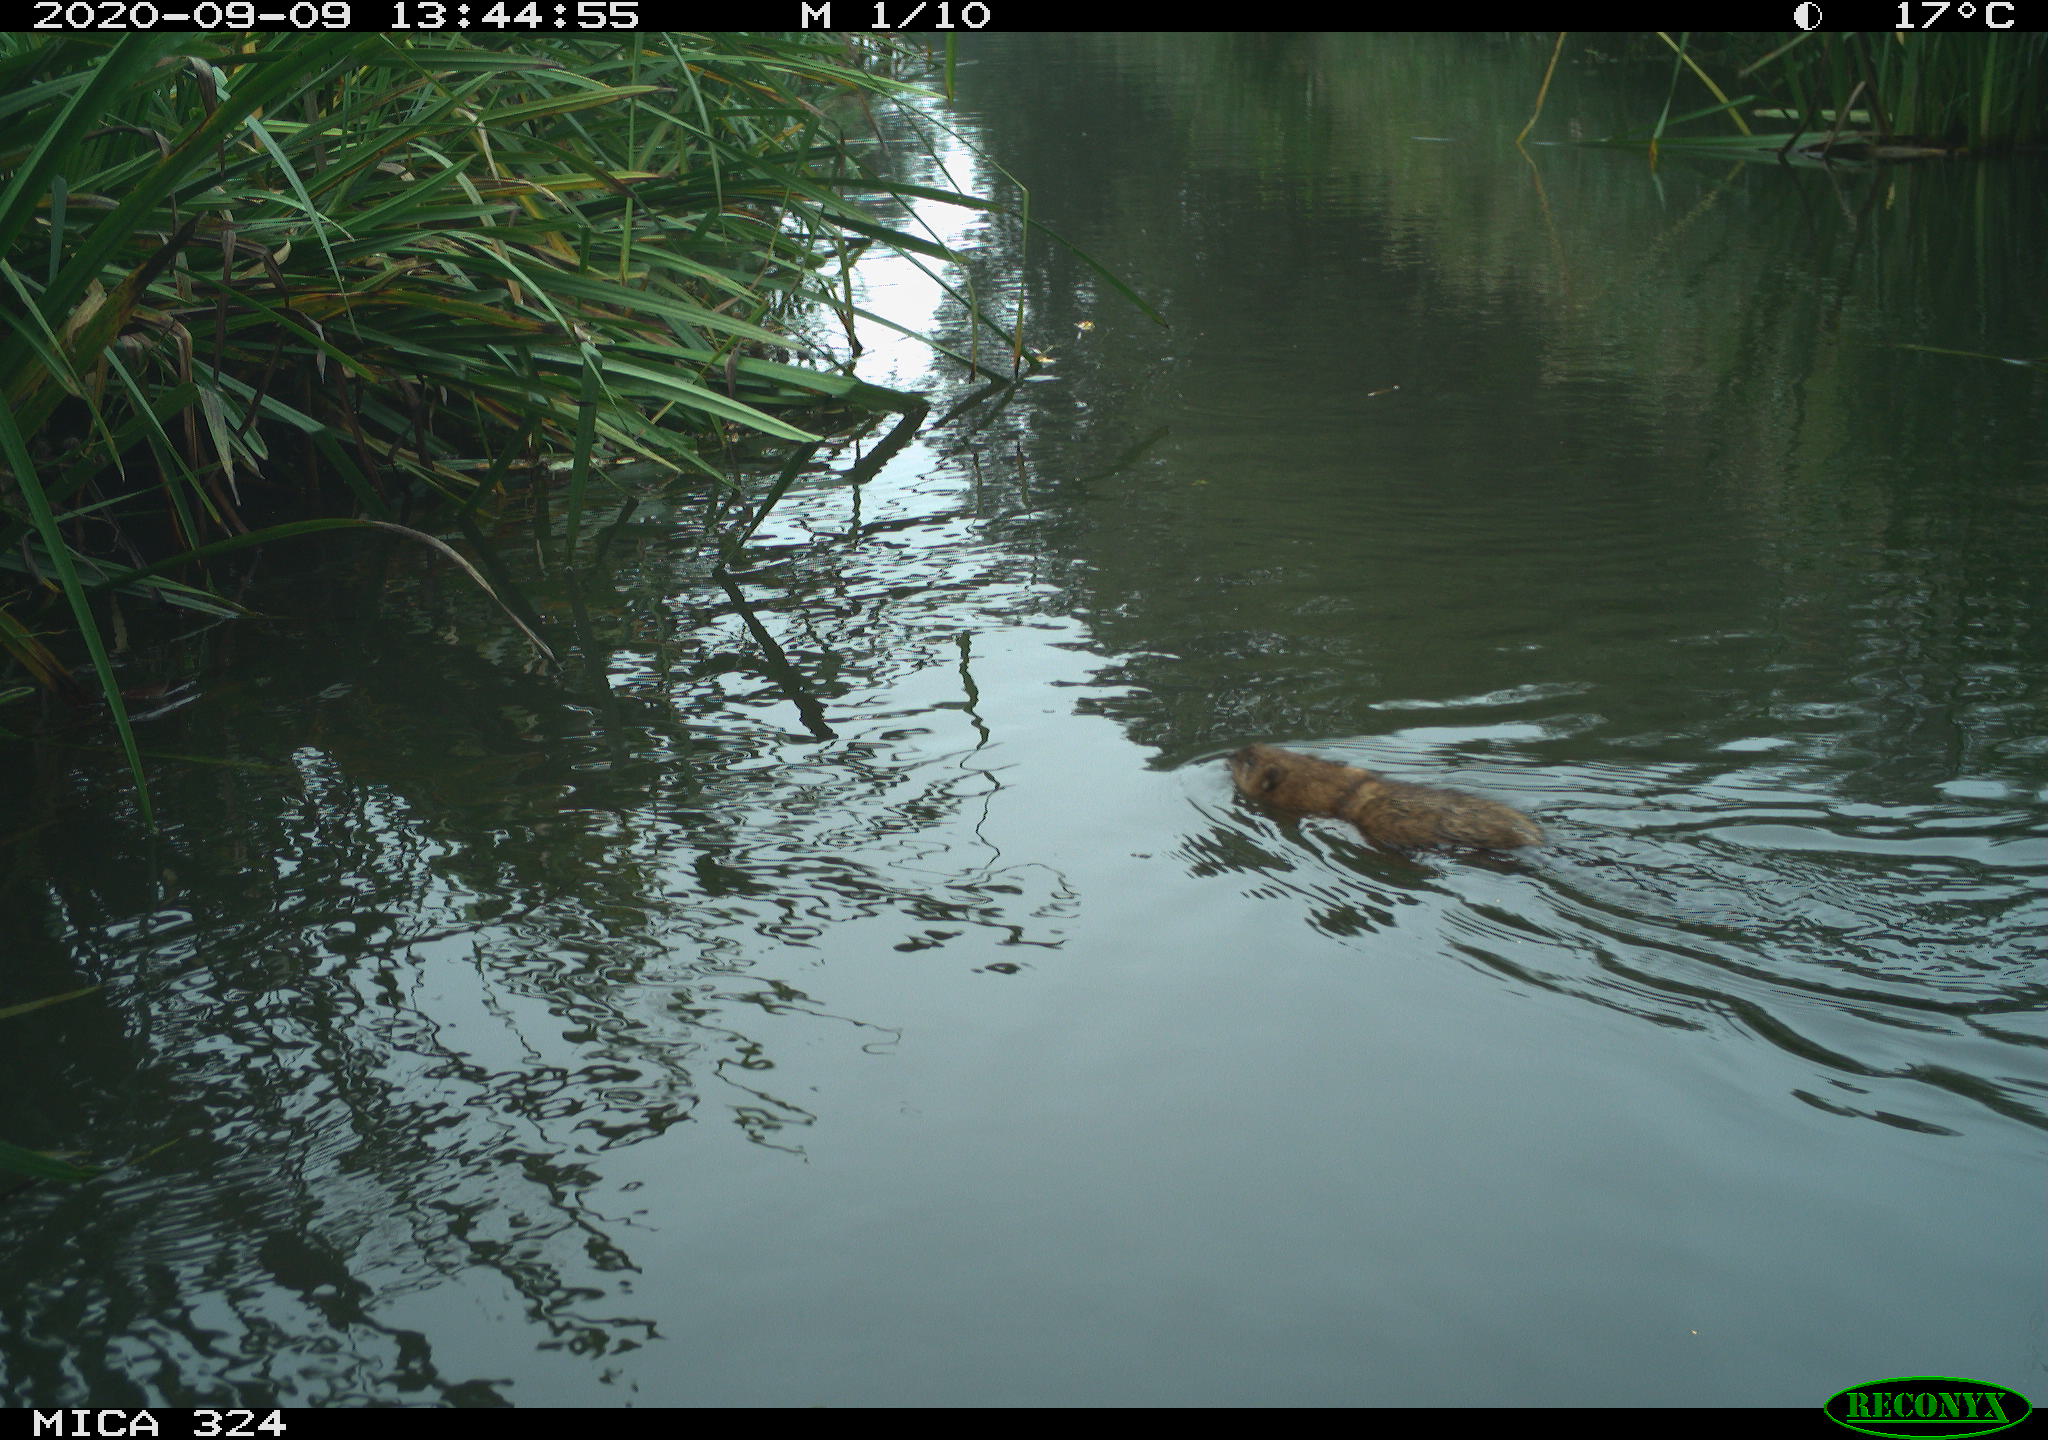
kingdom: Animalia
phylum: Chordata
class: Mammalia
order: Rodentia
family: Cricetidae
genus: Ondatra
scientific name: Ondatra zibethicus
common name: Muskrat
